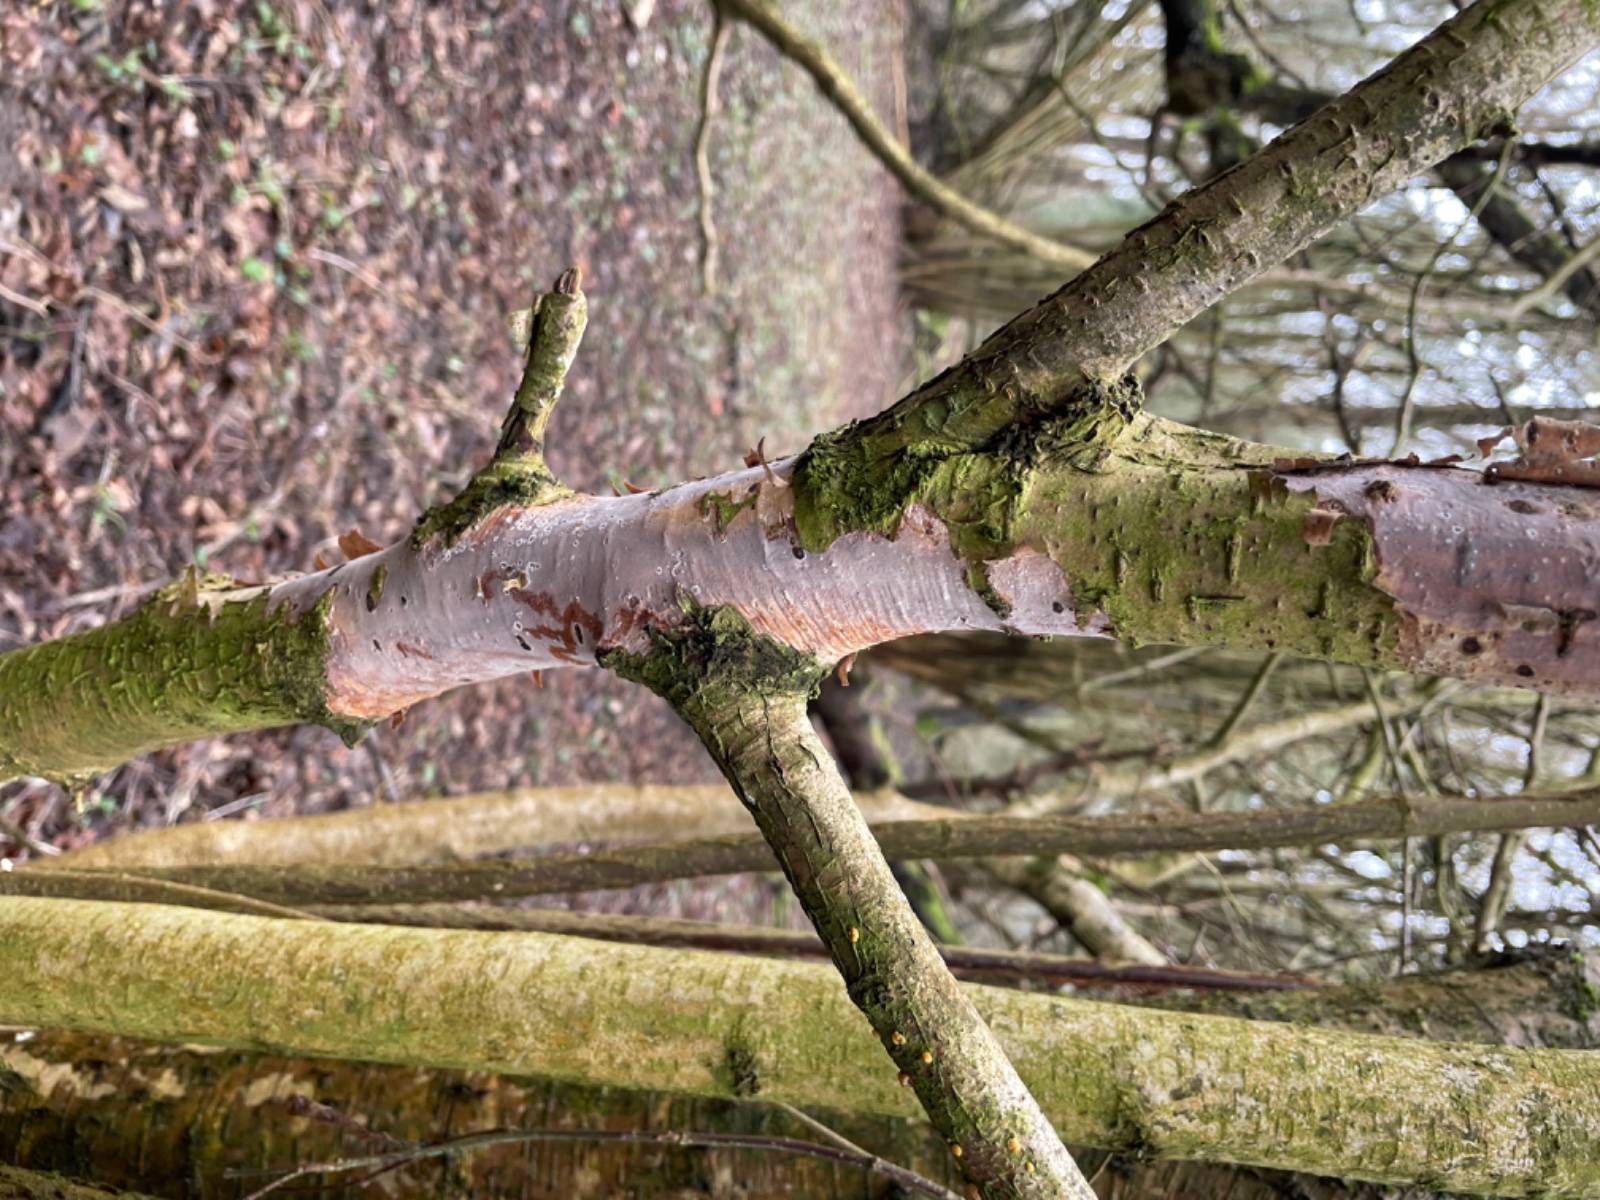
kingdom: Fungi
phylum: Basidiomycota
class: Agaricomycetes
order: Corticiales
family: Vuilleminiaceae
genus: Vuilleminia
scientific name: Vuilleminia coryli
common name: hassel-barksprænger
